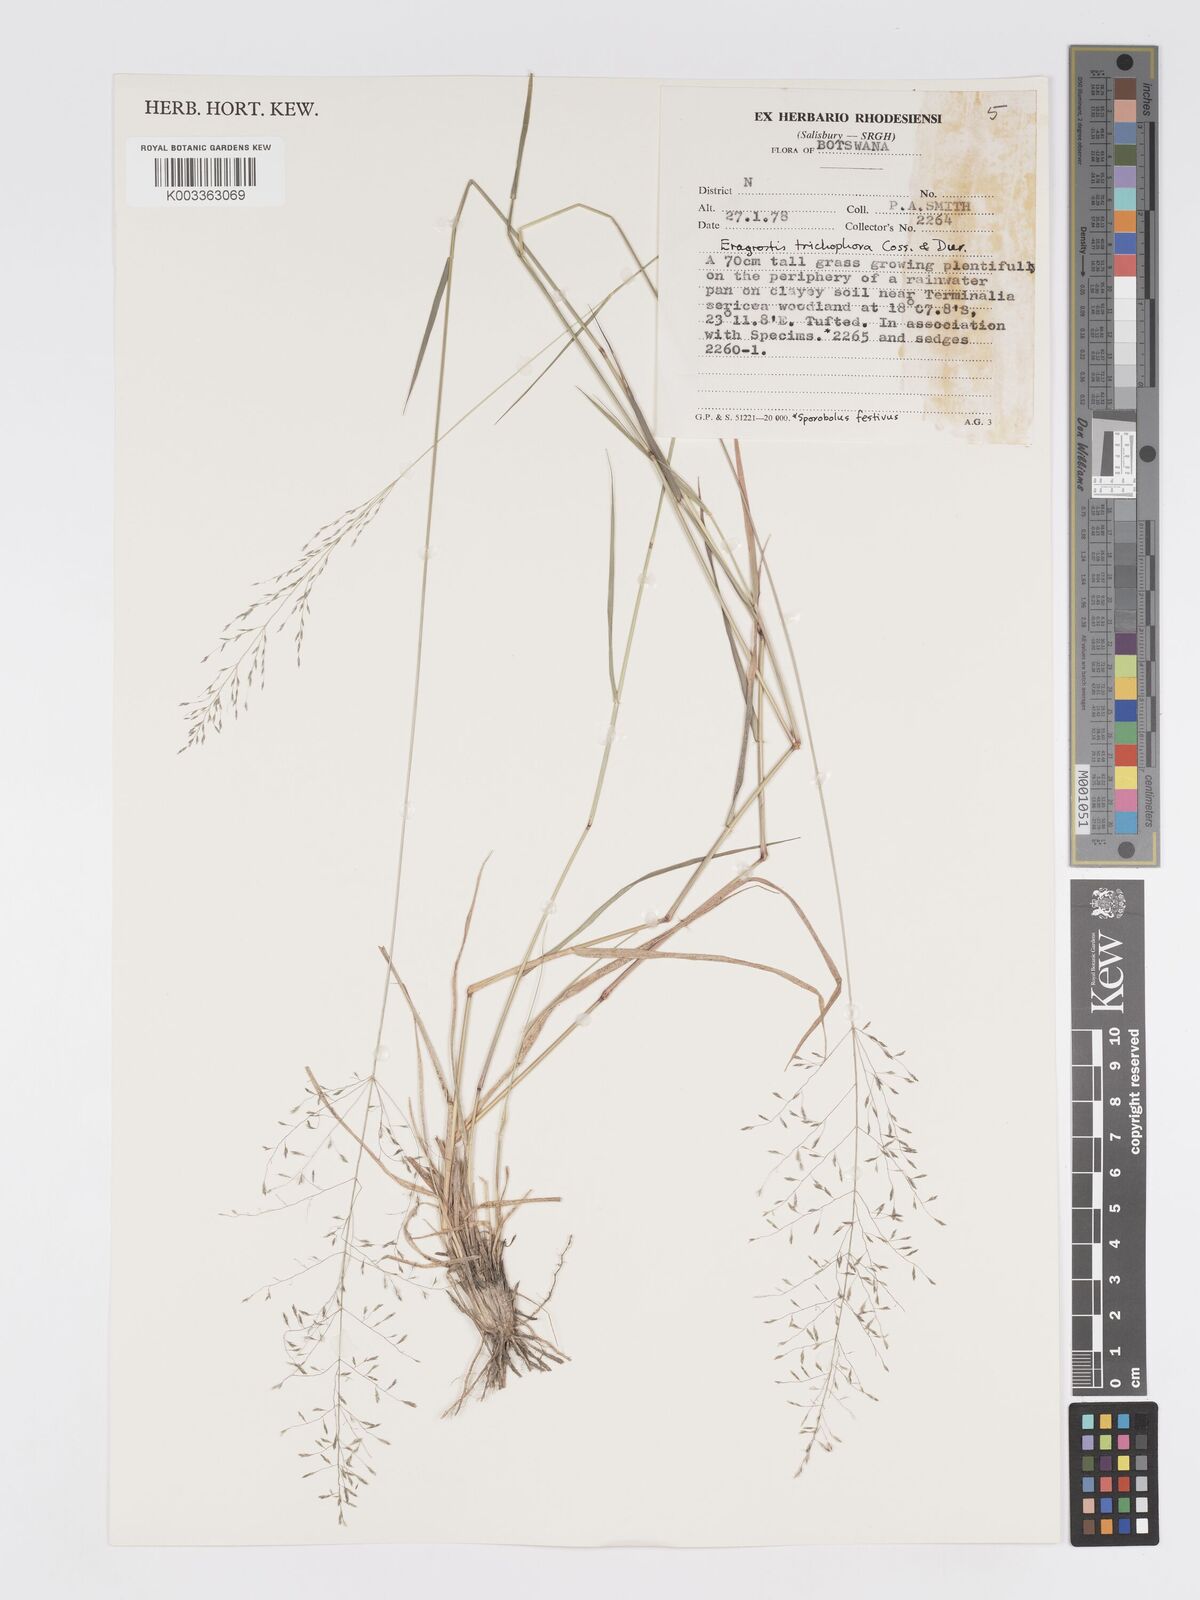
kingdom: Plantae
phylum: Tracheophyta
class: Liliopsida
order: Poales
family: Poaceae
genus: Eragrostis
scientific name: Eragrostis cylindriflora
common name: Cylinderflower lovegrass
